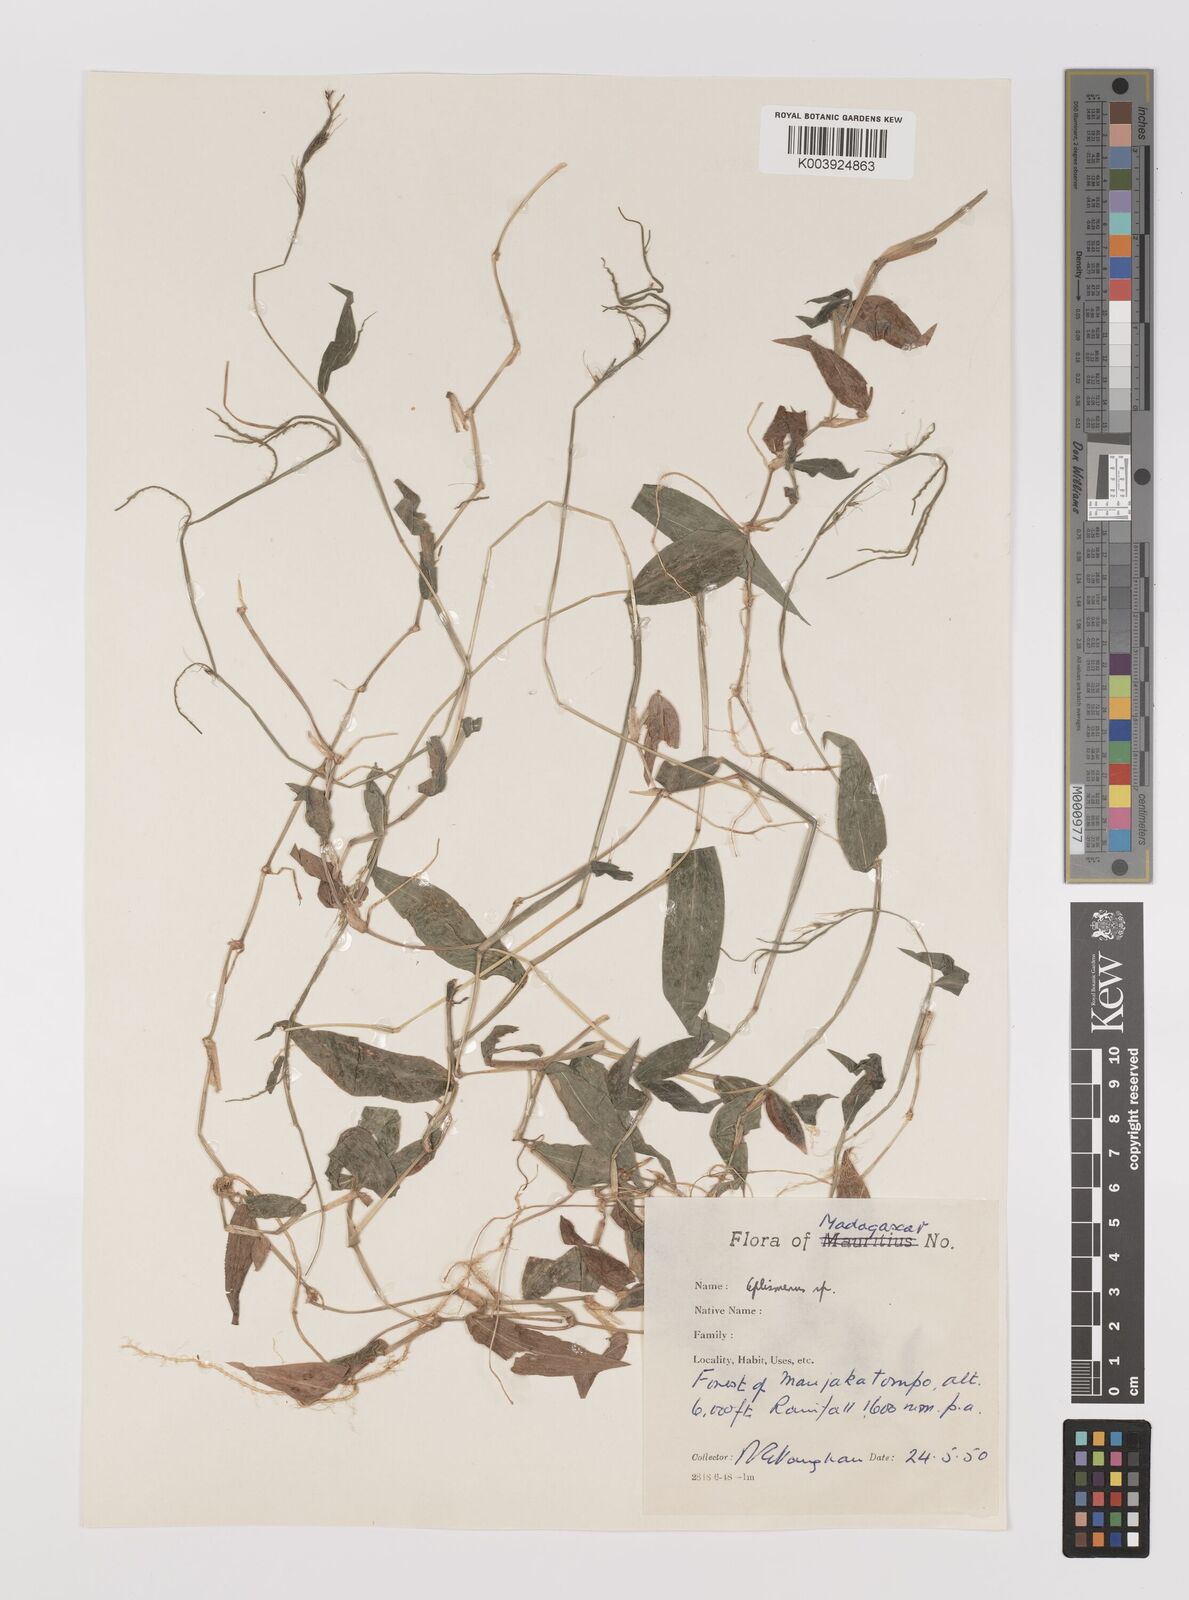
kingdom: Plantae
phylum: Tracheophyta
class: Liliopsida
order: Poales
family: Poaceae
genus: Oplismenus
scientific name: Oplismenus compositus
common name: Running mountain grass
